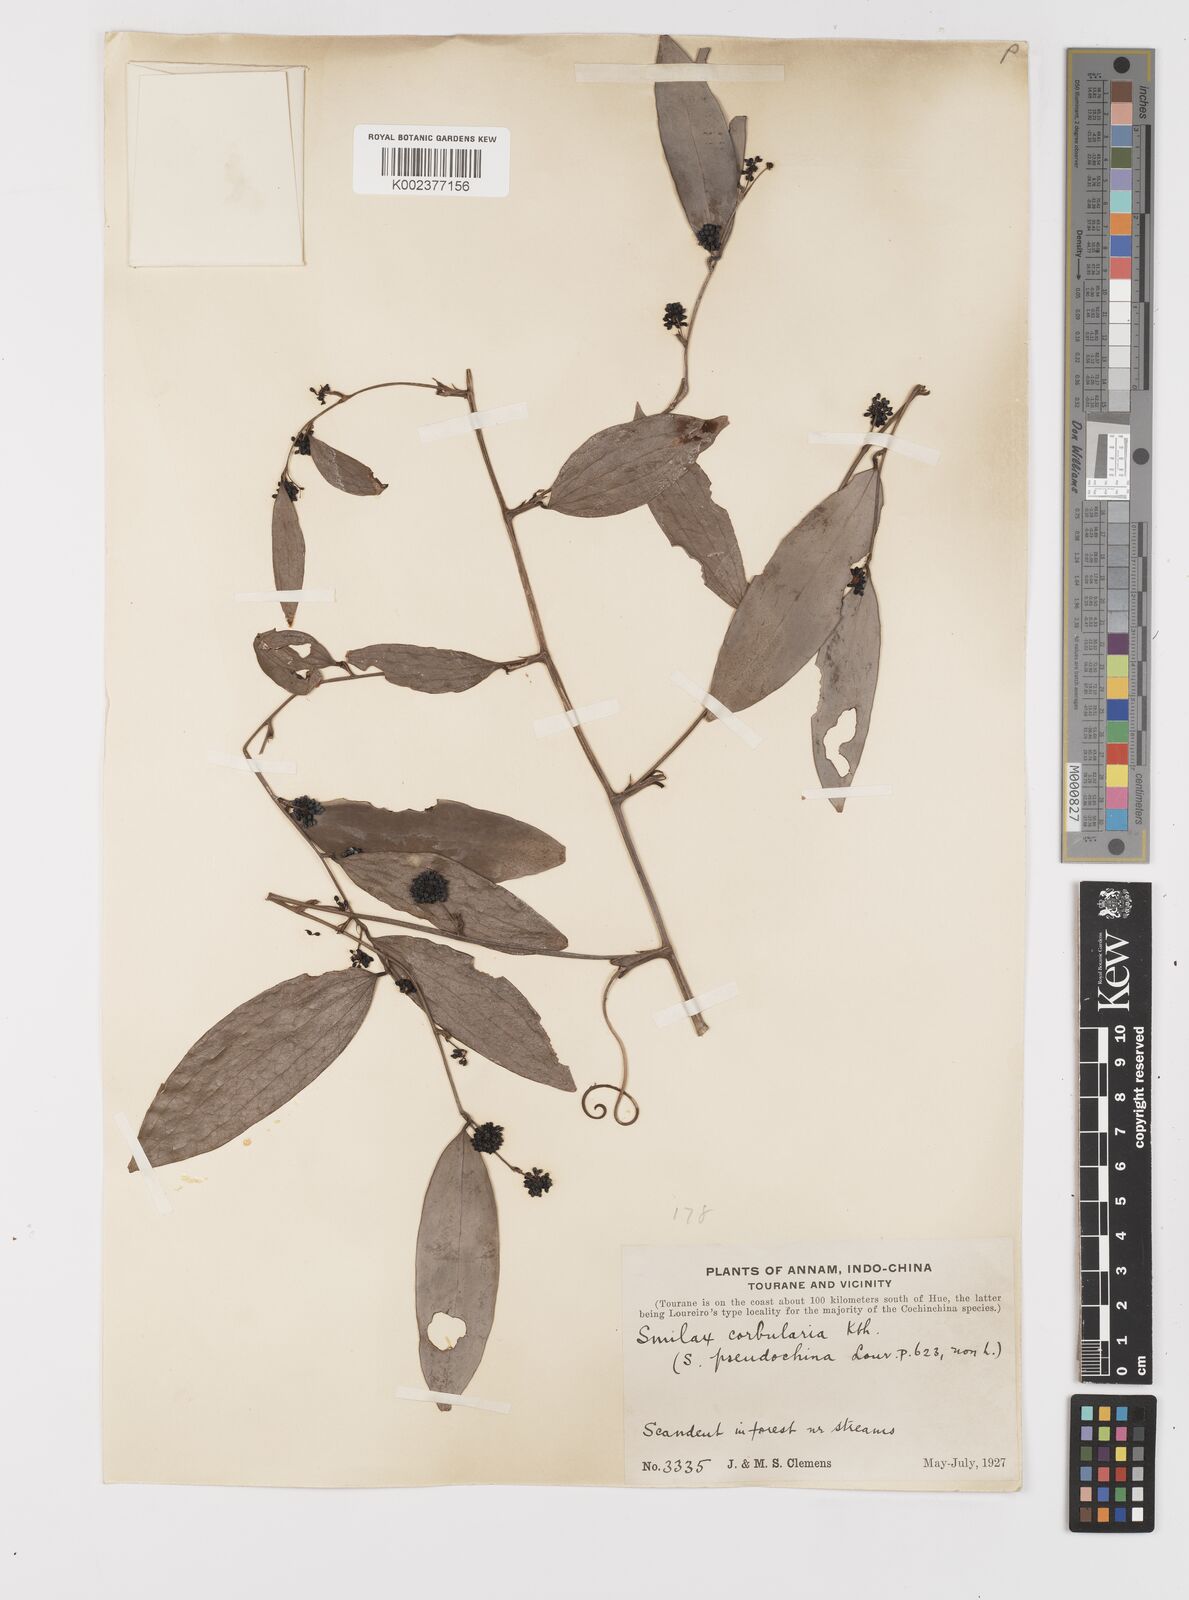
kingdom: Plantae
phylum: Tracheophyta
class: Liliopsida
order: Liliales
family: Smilacaceae
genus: Smilax
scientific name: Smilax corbularia
